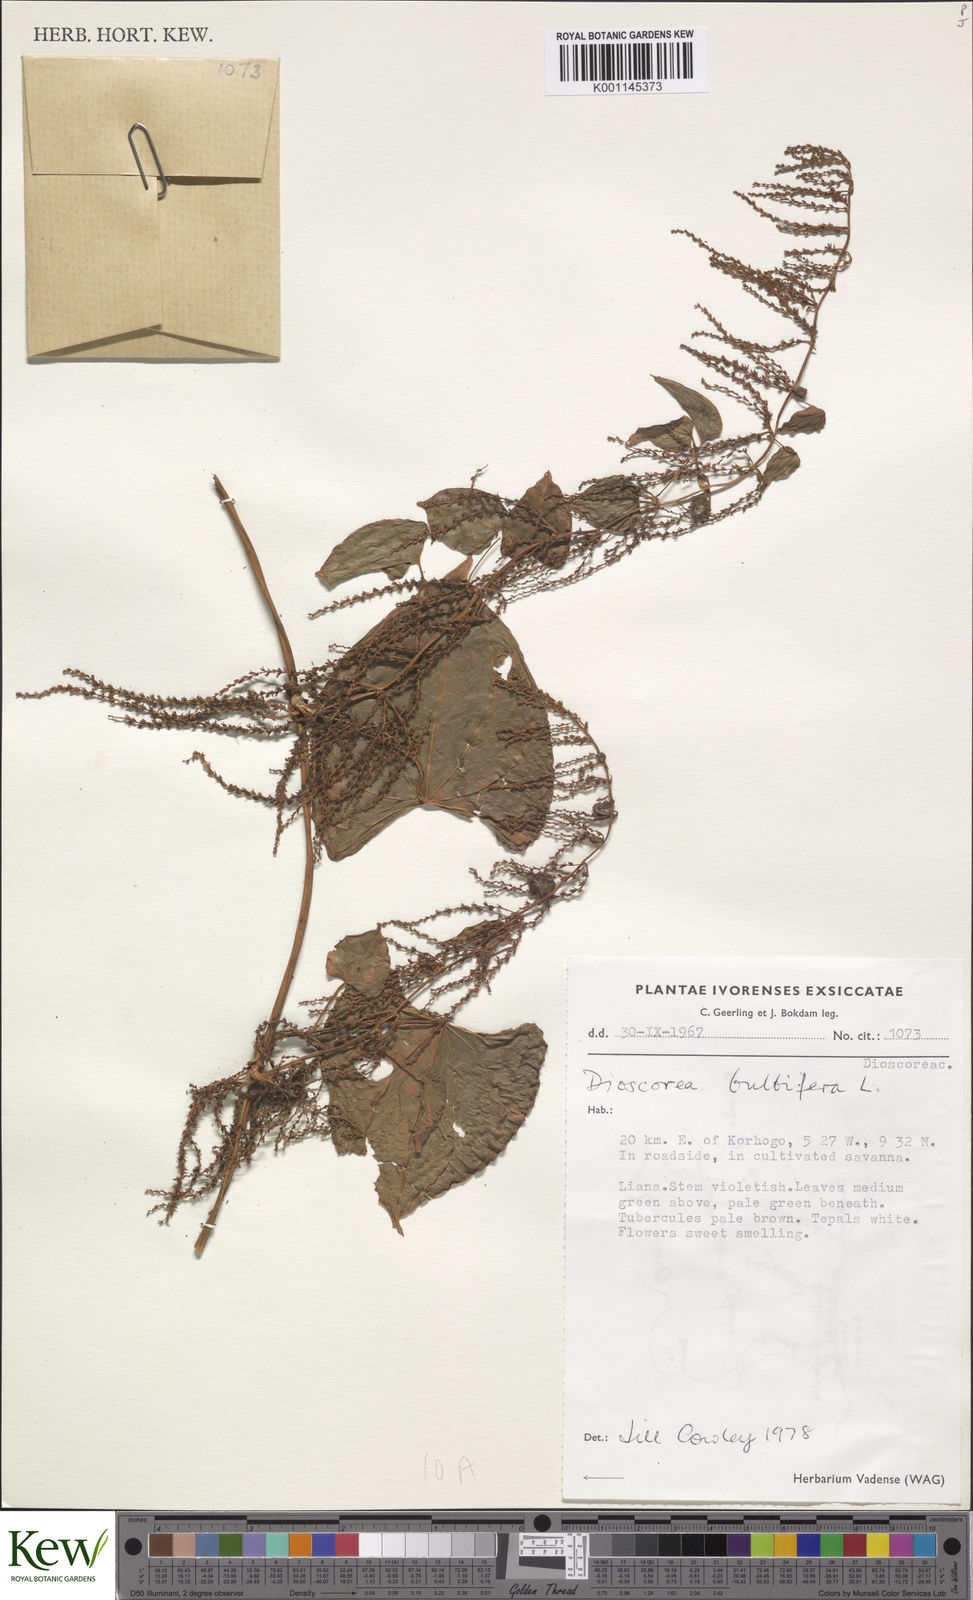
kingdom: Plantae
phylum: Tracheophyta
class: Liliopsida
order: Dioscoreales
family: Dioscoreaceae
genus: Dioscorea
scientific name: Dioscorea bulbifera
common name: Air yam
